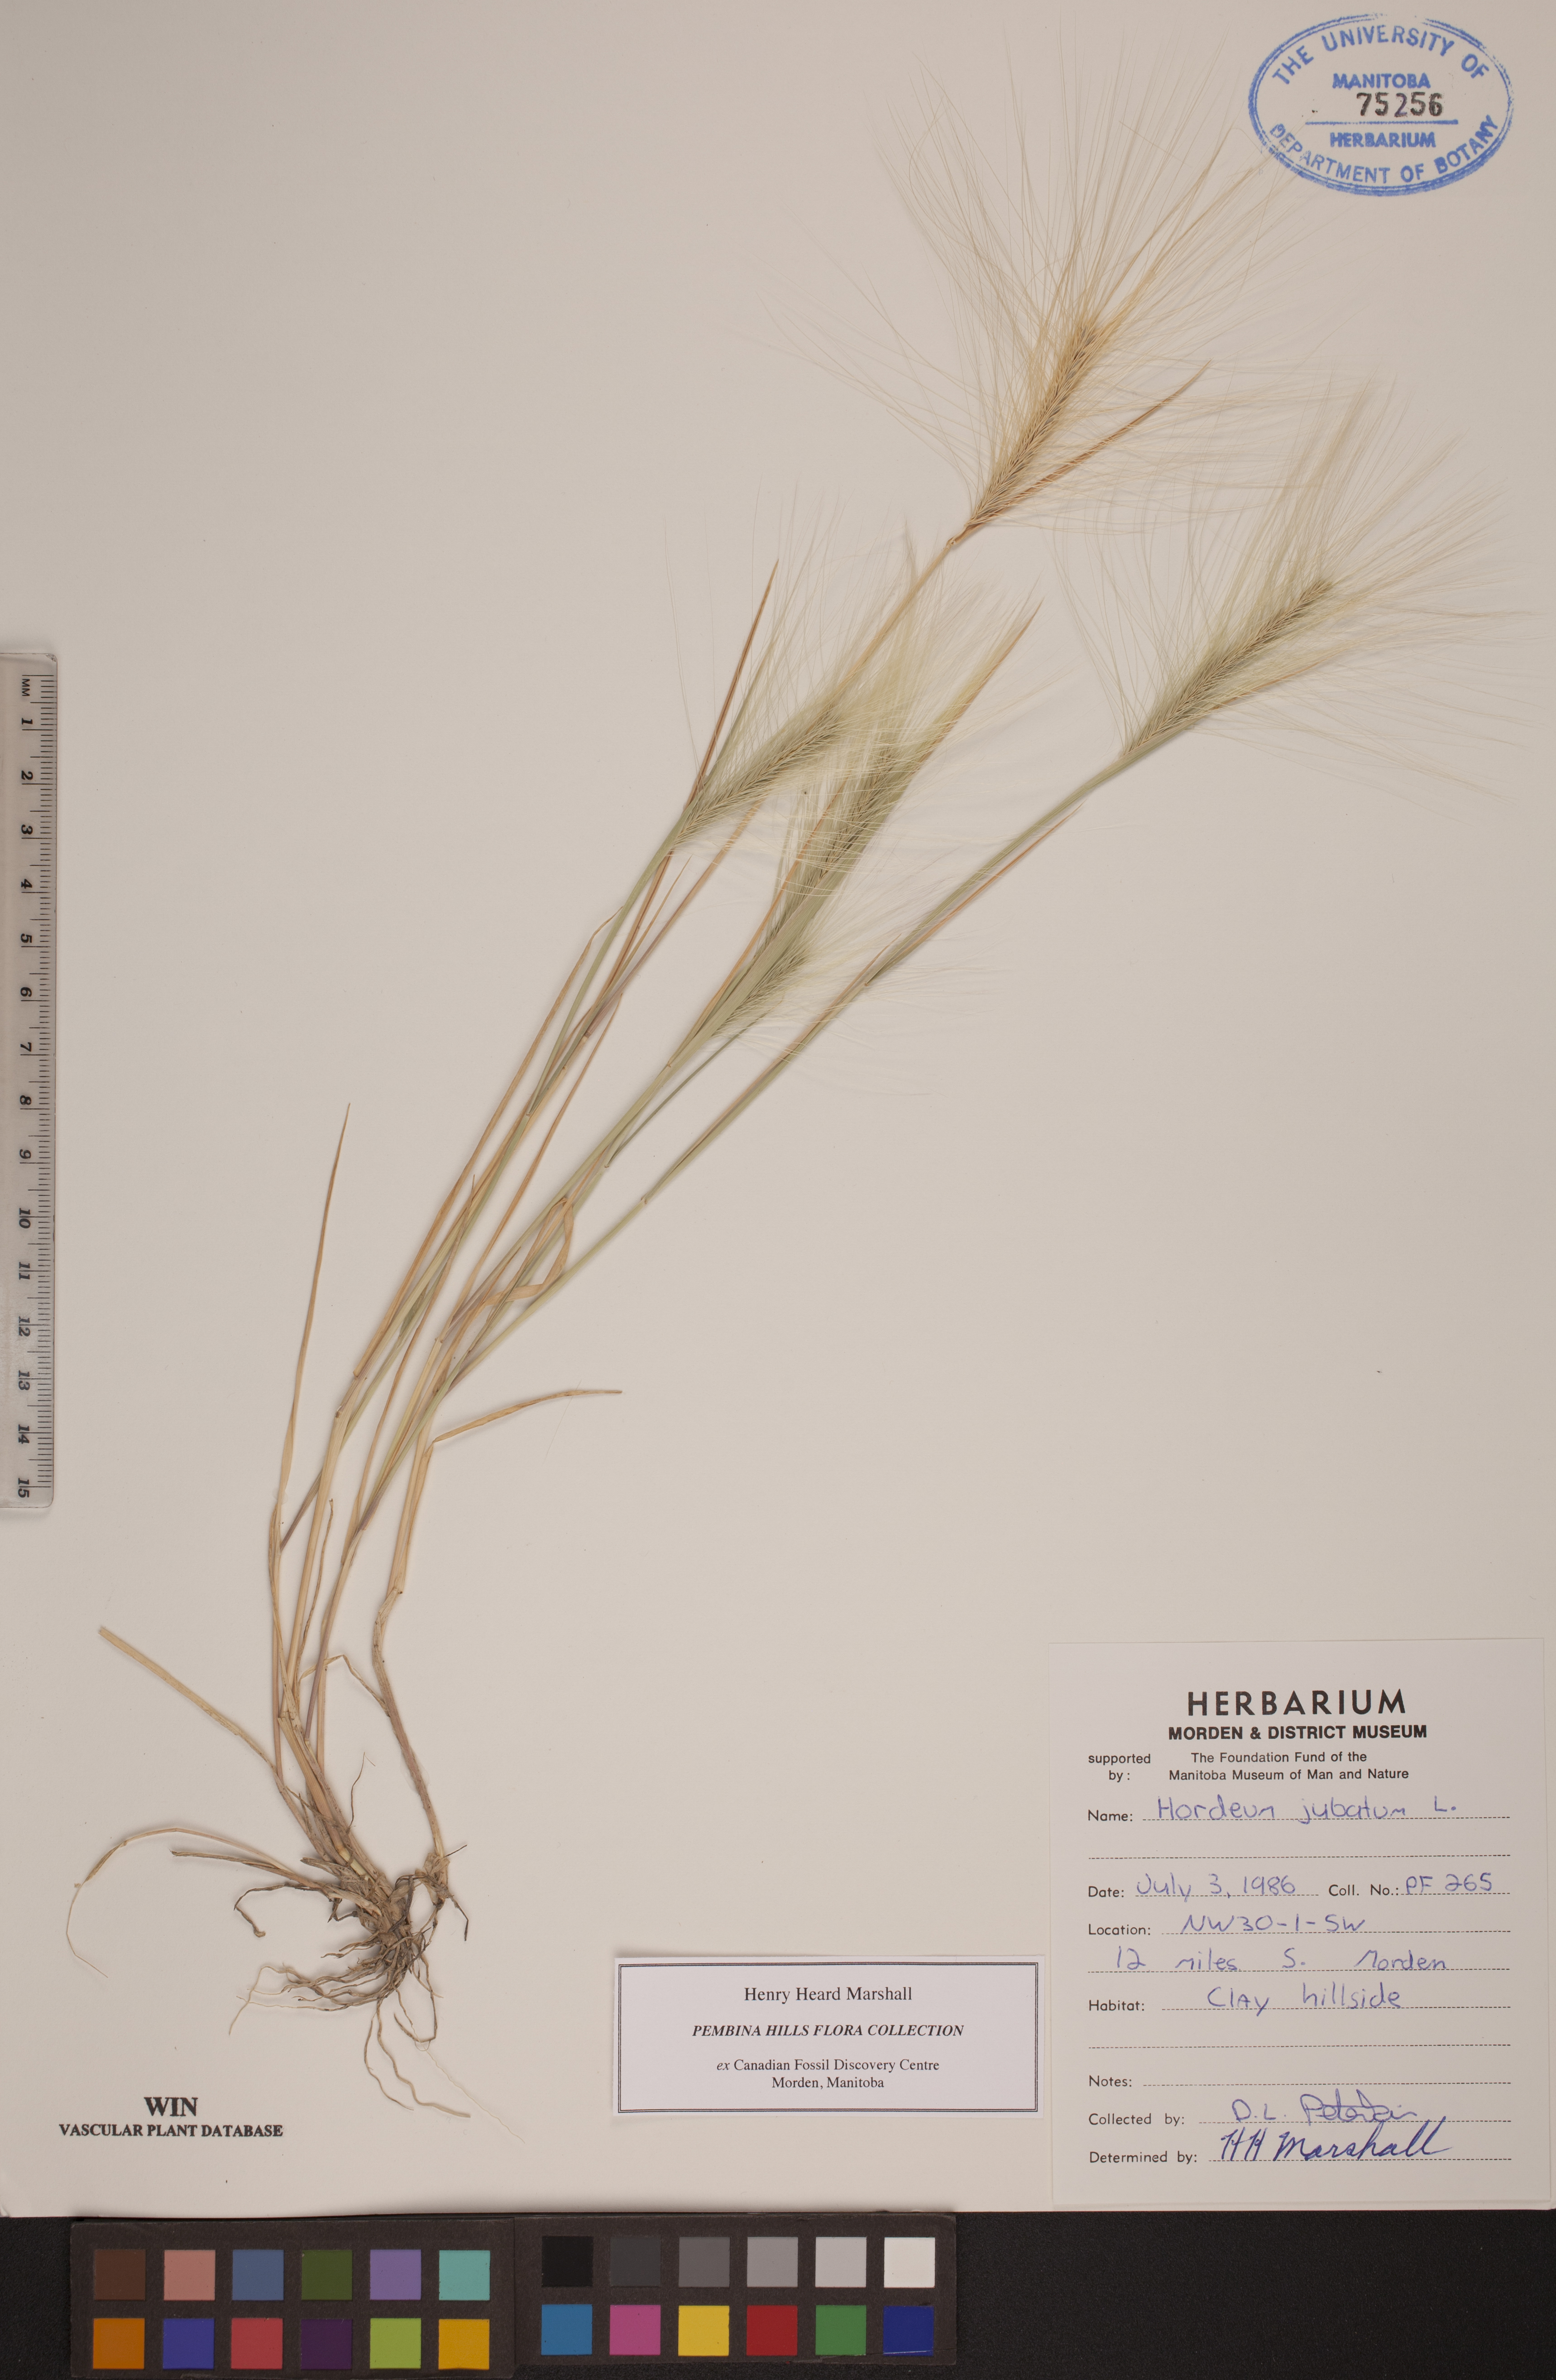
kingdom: Plantae
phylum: Tracheophyta
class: Liliopsida
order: Poales
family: Poaceae
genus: Hordeum
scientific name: Hordeum jubatum
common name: Foxtail barley
